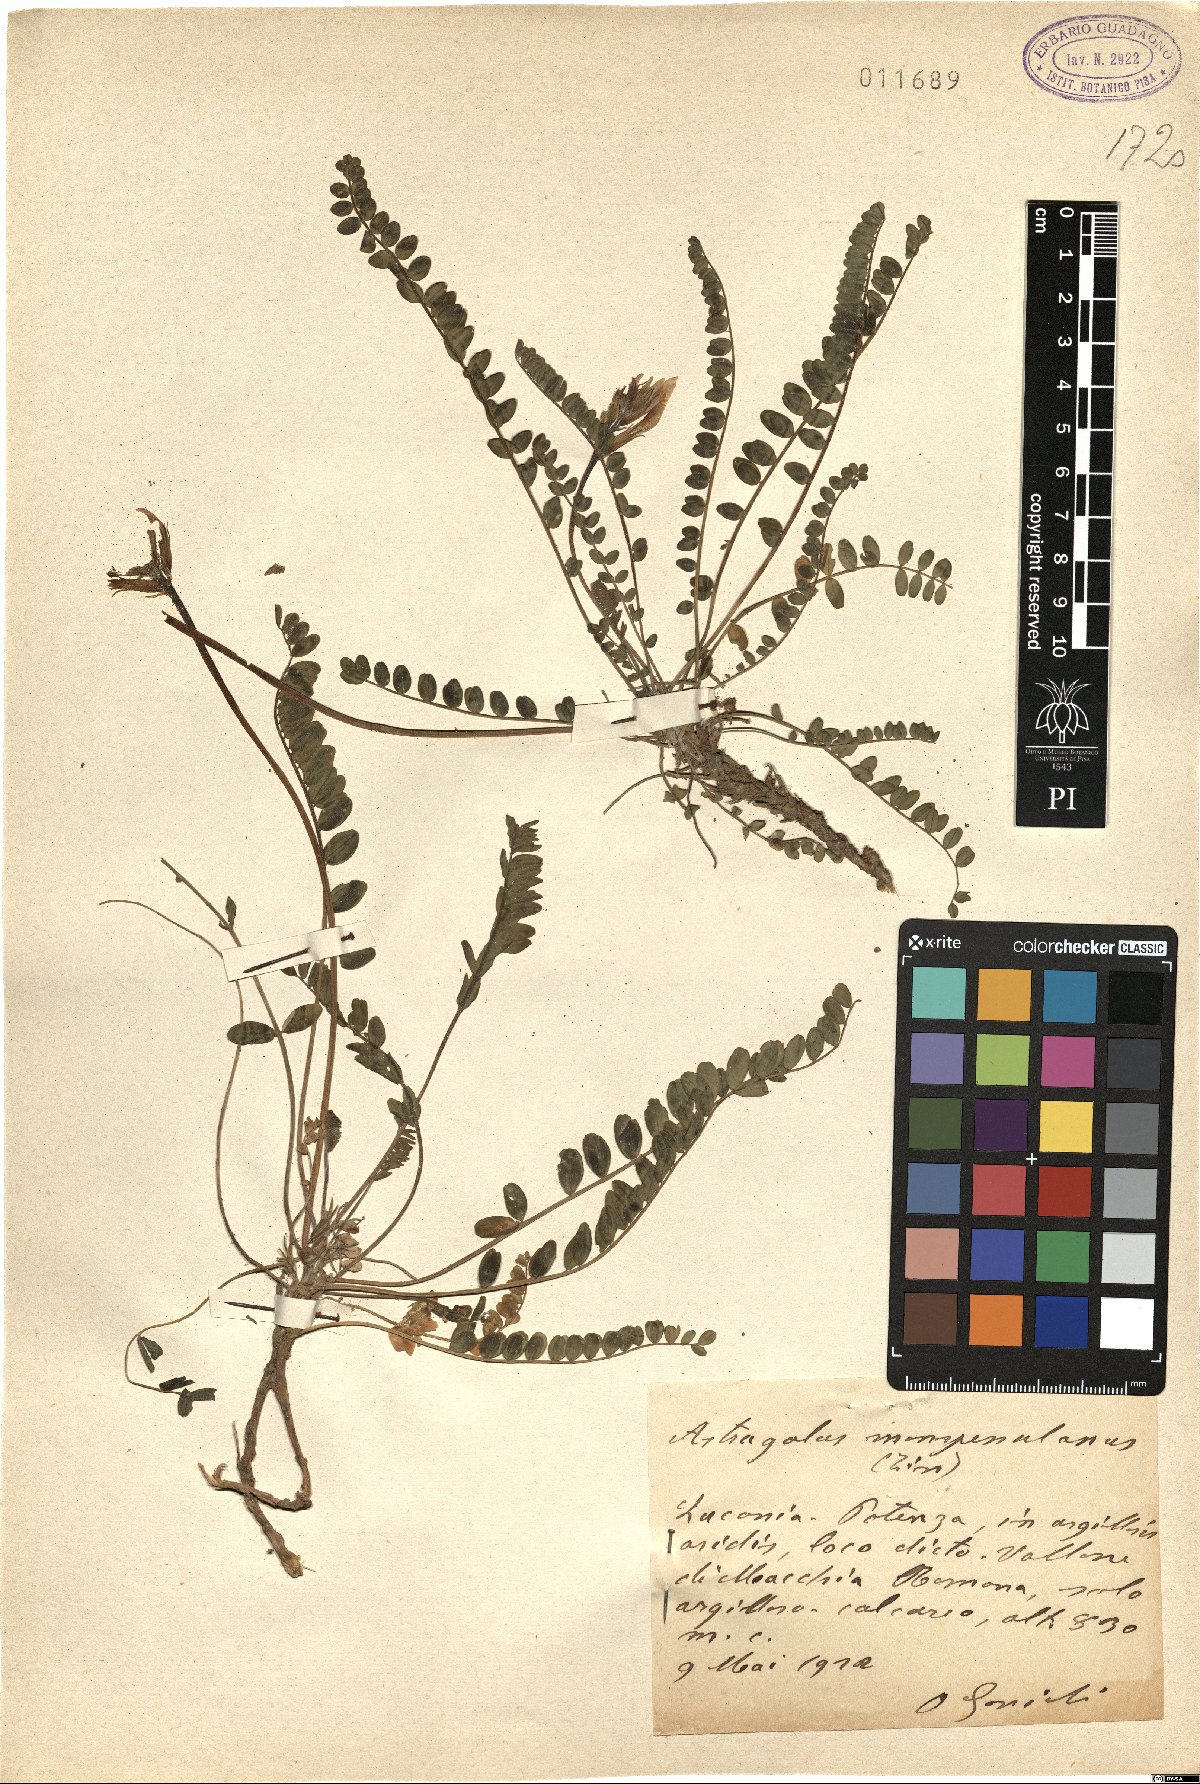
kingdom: Plantae
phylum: Tracheophyta
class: Magnoliopsida
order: Fabales
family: Fabaceae
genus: Astragalus
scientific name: Astragalus monspessulanus
